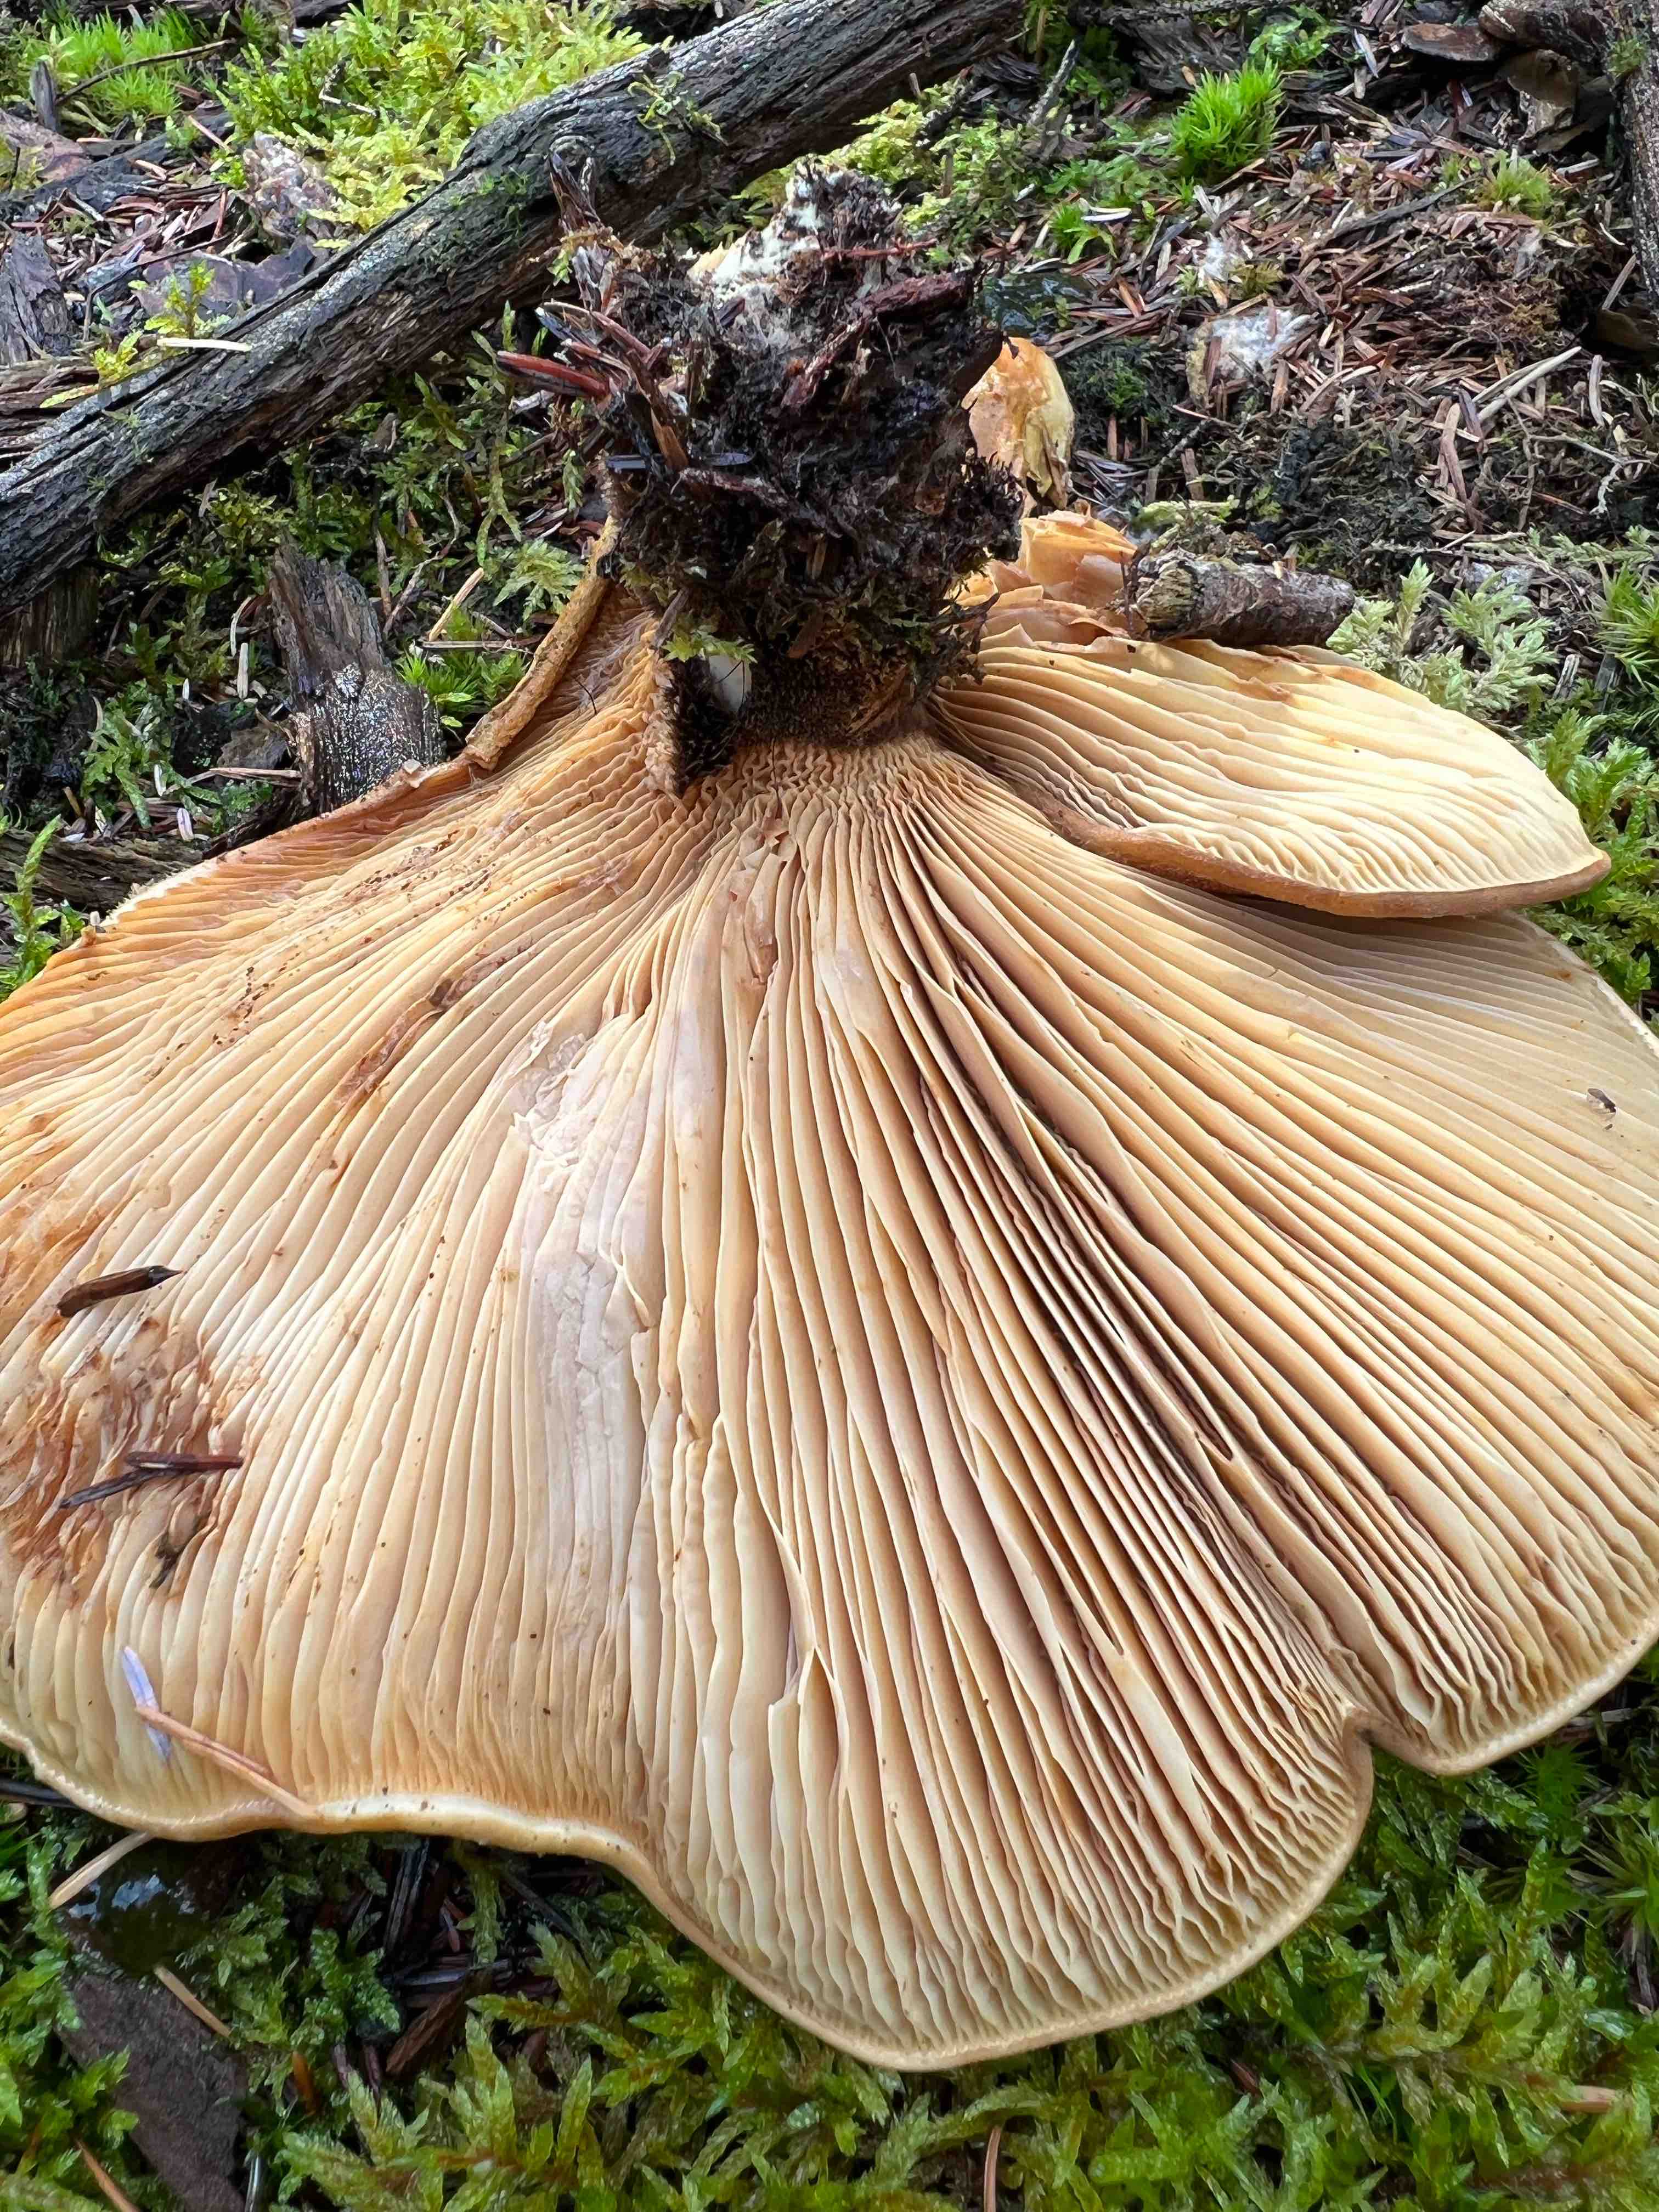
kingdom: Fungi
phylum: Basidiomycota
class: Agaricomycetes
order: Boletales
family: Tapinellaceae
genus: Tapinella
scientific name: Tapinella atrotomentosa
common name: sortfiltet viftesvamp
